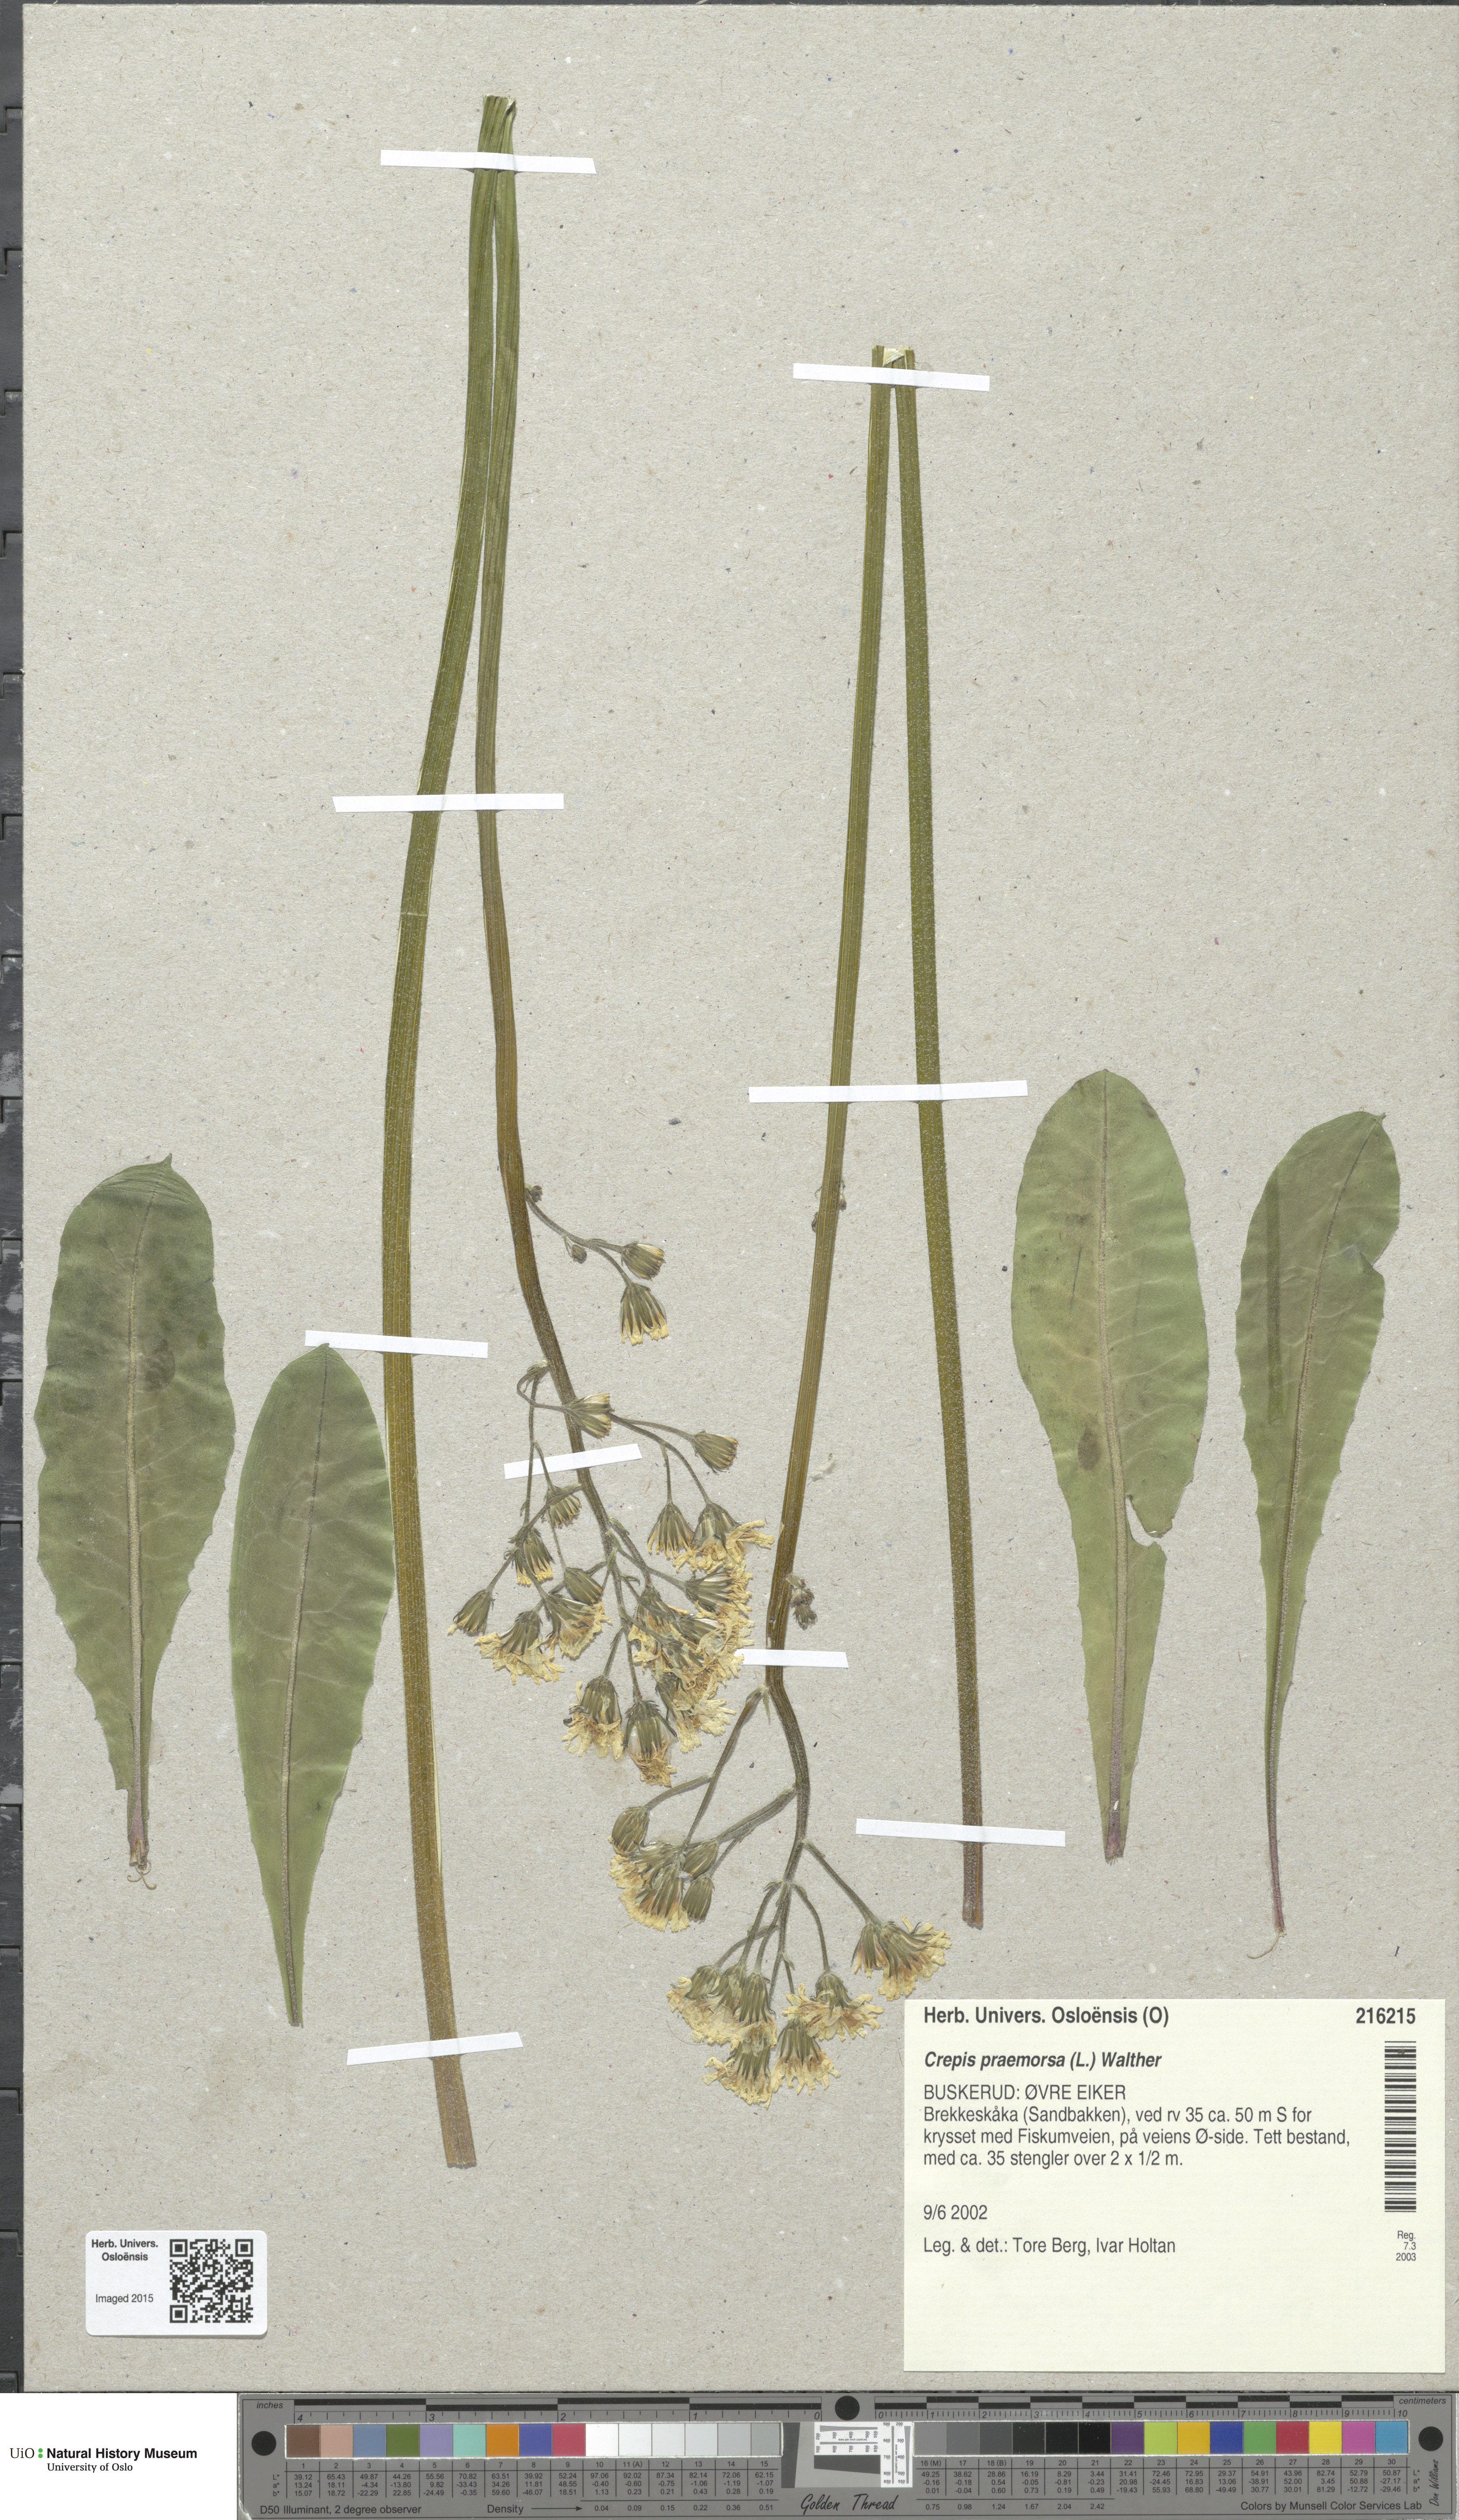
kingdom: Plantae
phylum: Tracheophyta
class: Magnoliopsida
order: Asterales
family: Asteraceae
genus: Crepis
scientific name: Crepis praemorsa
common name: Leafless hawk's-beard
